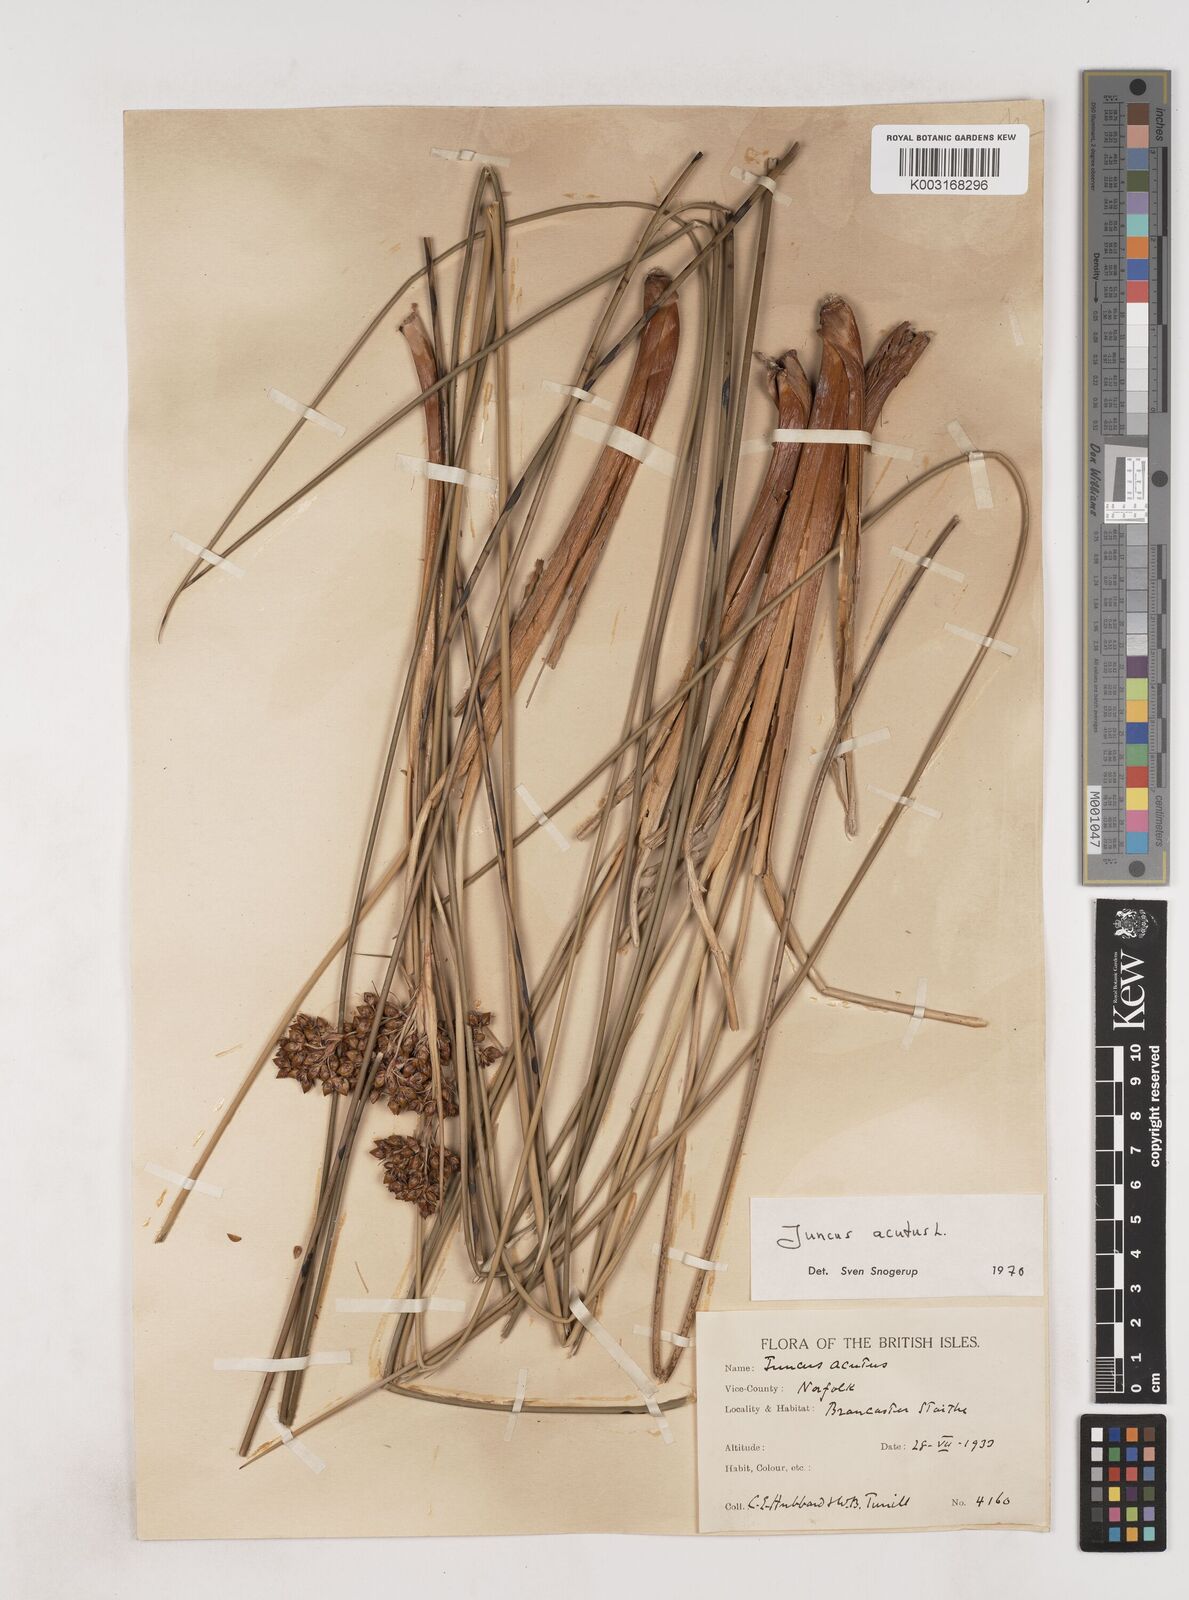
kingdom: Plantae
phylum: Tracheophyta
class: Liliopsida
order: Poales
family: Juncaceae
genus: Juncus
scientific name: Juncus acutus
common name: Sharp rush
